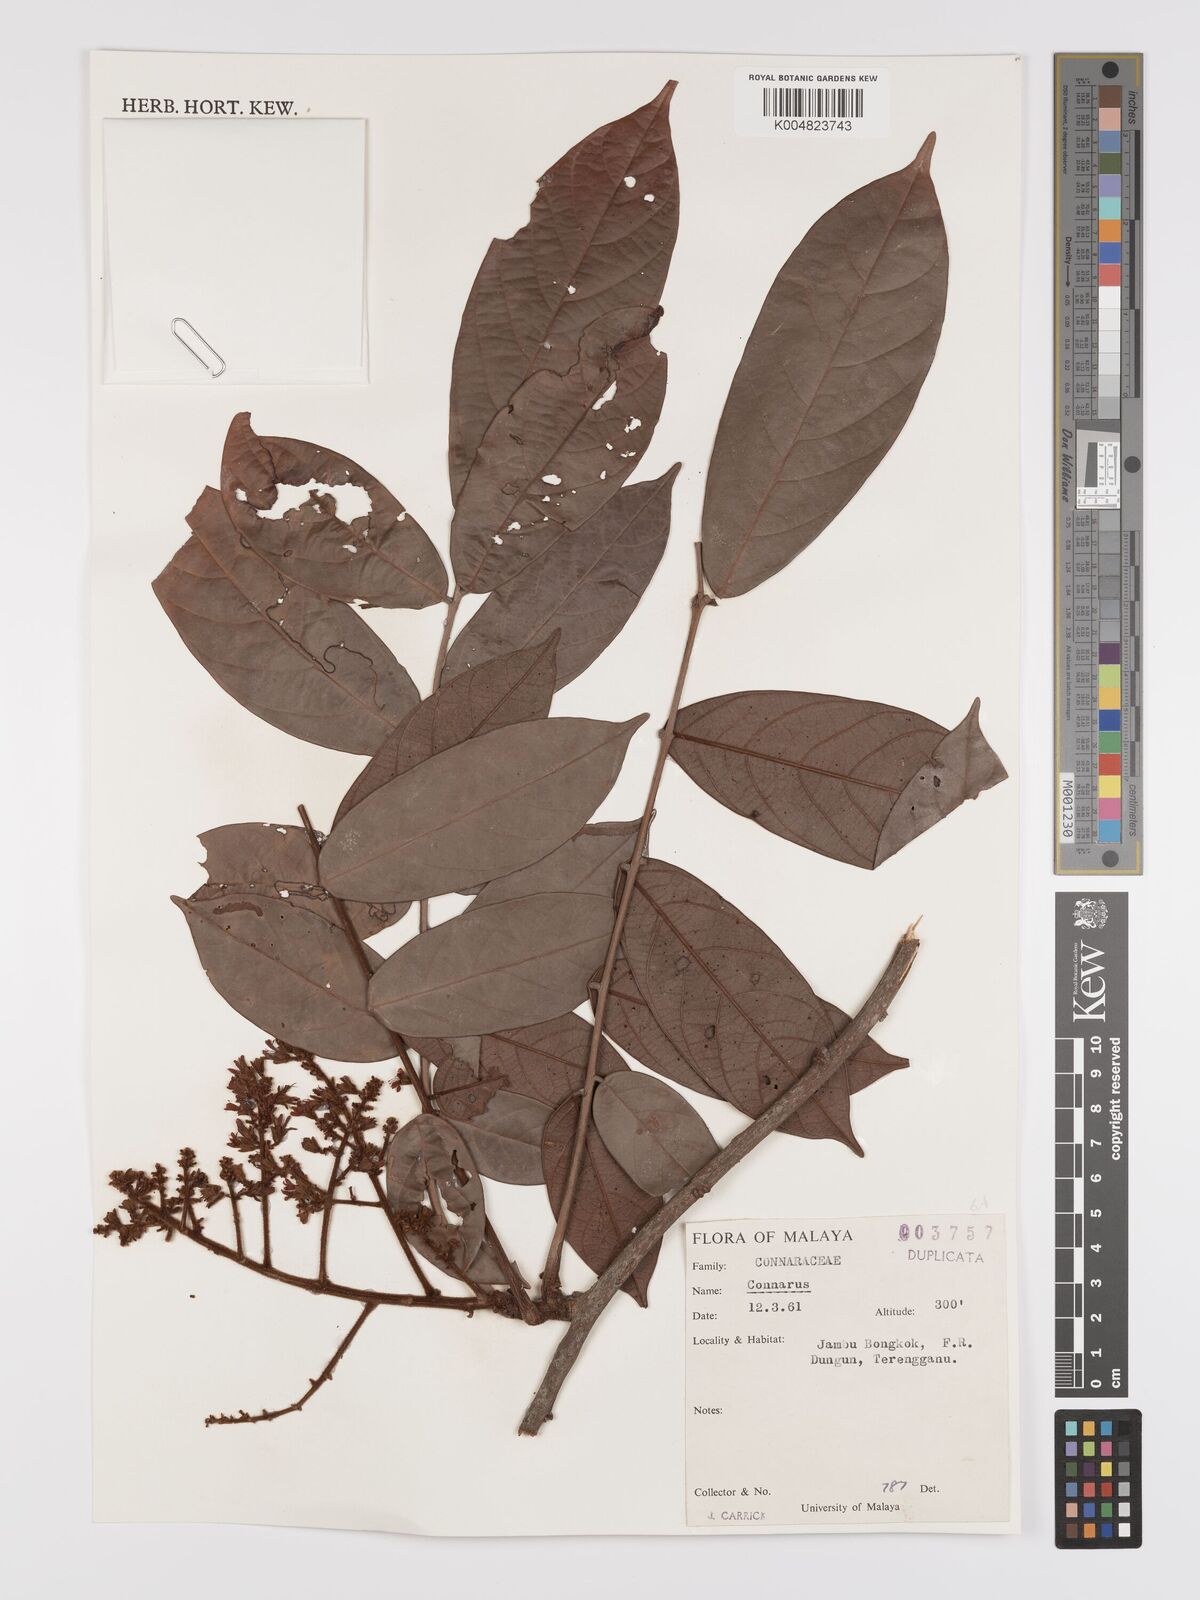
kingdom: Plantae
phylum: Tracheophyta
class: Magnoliopsida
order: Oxalidales
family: Connaraceae
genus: Connarus
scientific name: Connarus
